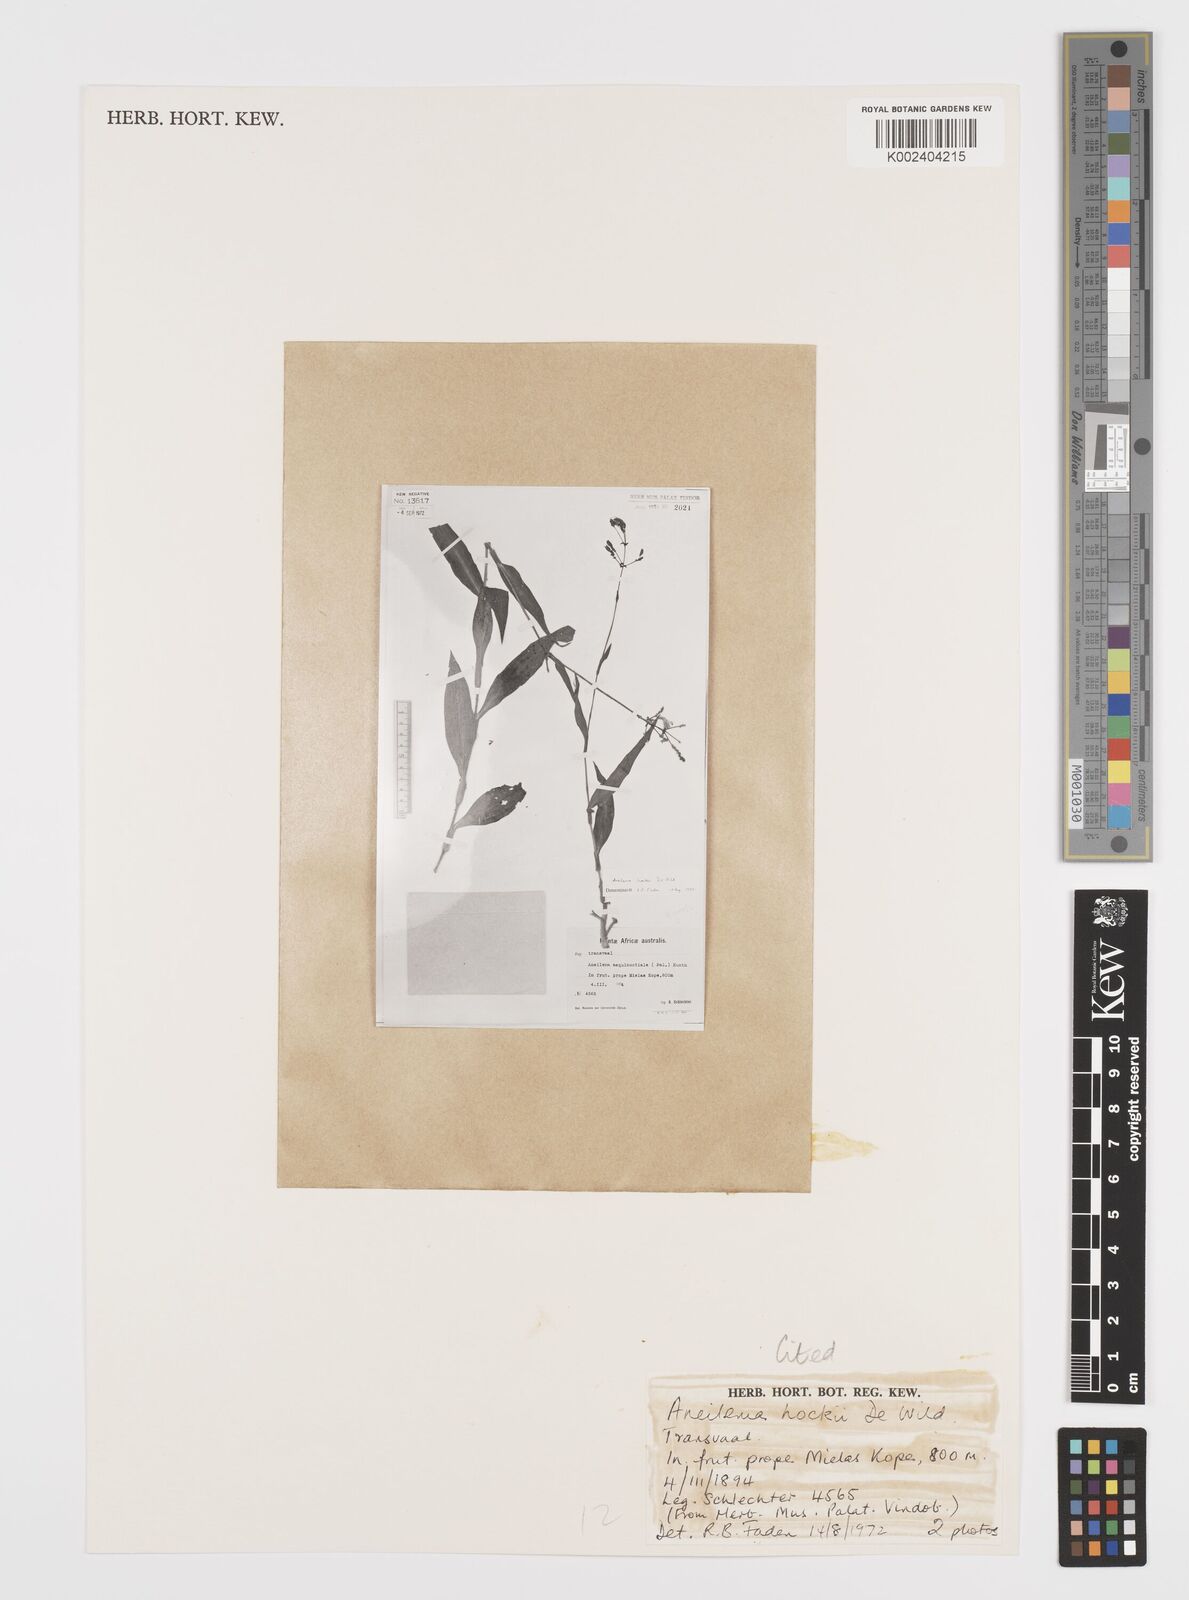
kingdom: Plantae
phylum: Tracheophyta
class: Liliopsida
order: Commelinales
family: Commelinaceae
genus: Aneilema
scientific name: Aneilema hockii
